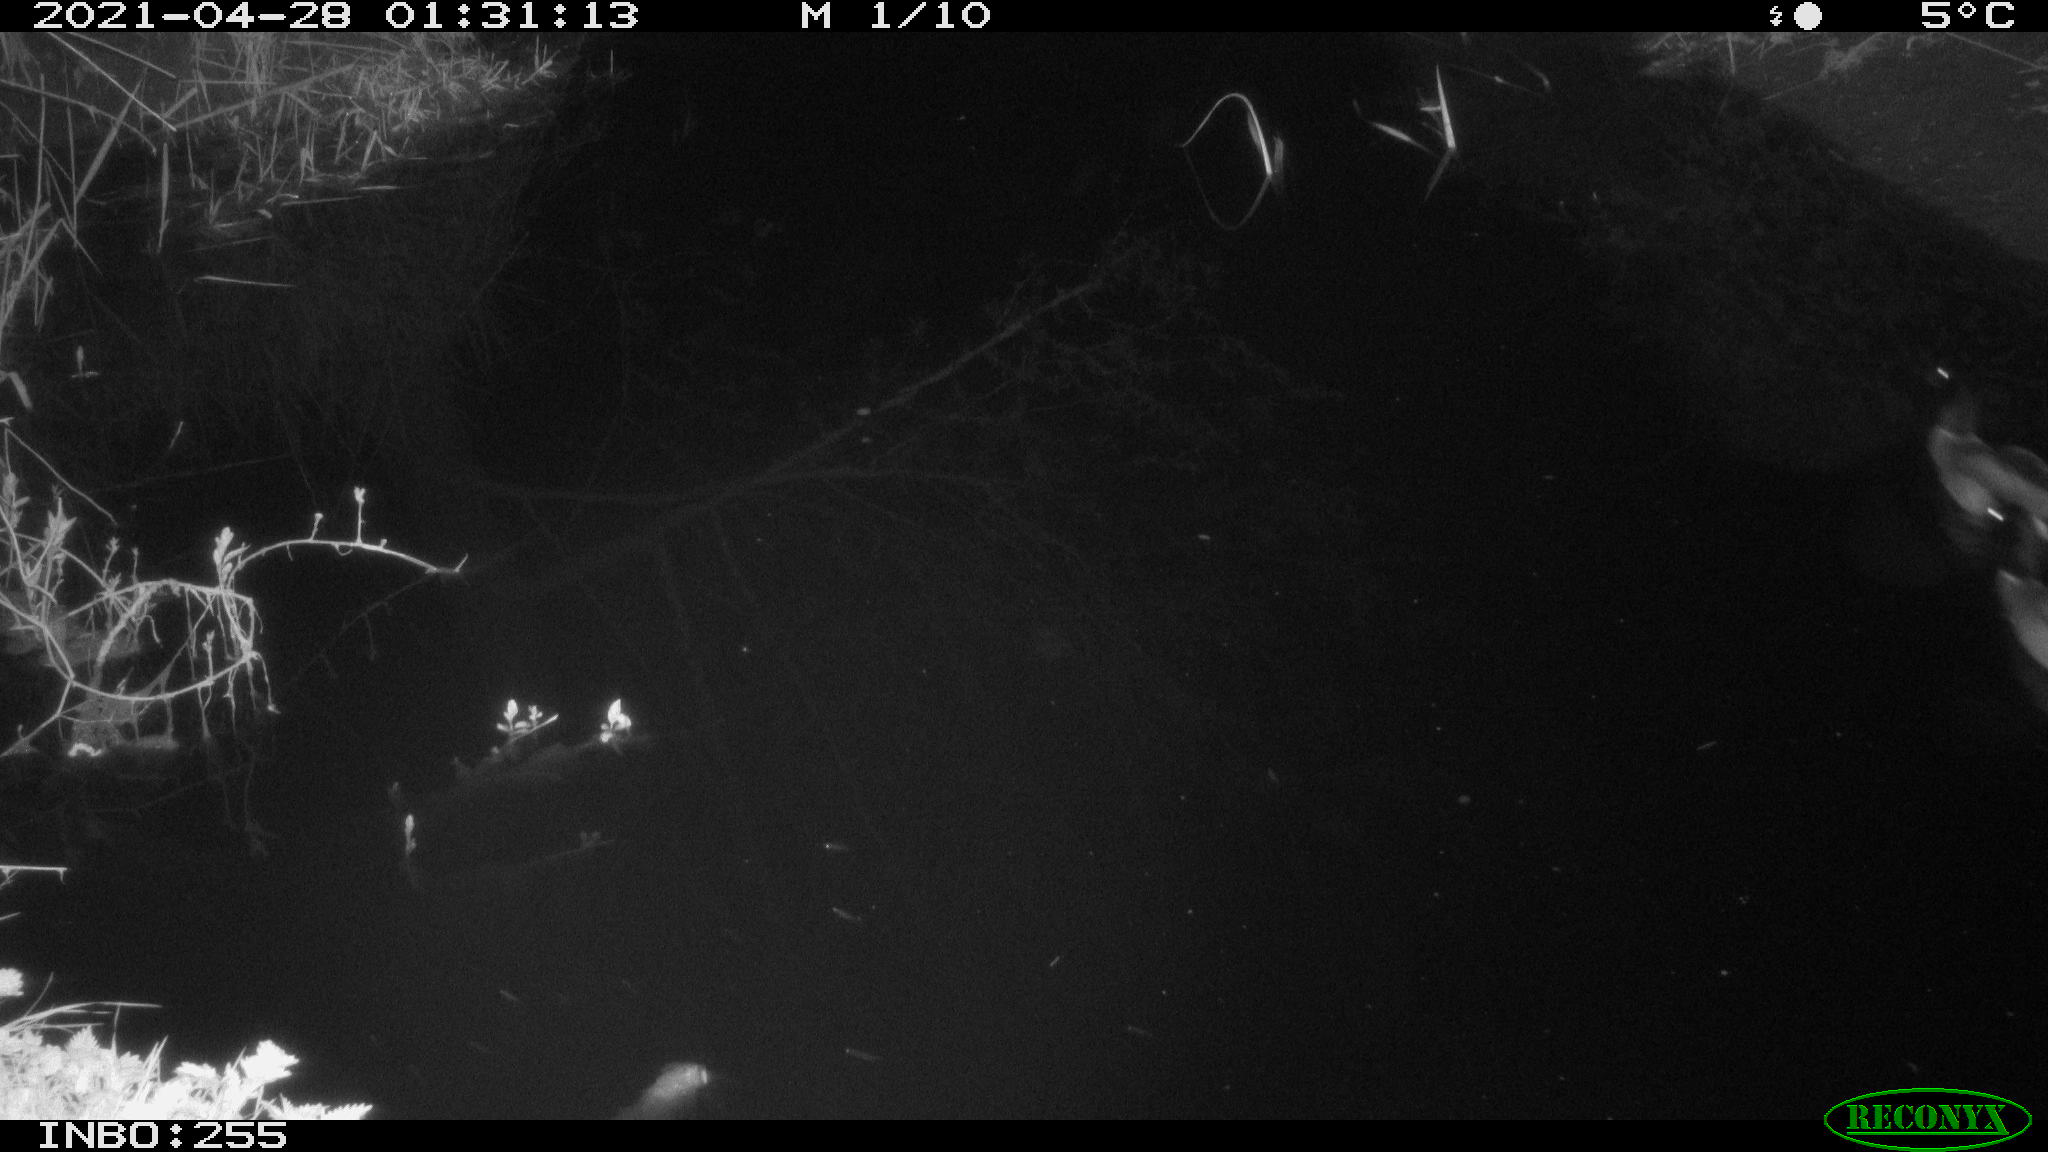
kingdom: Animalia
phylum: Chordata
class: Aves
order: Anseriformes
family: Anatidae
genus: Anas
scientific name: Anas platyrhynchos
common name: Mallard
